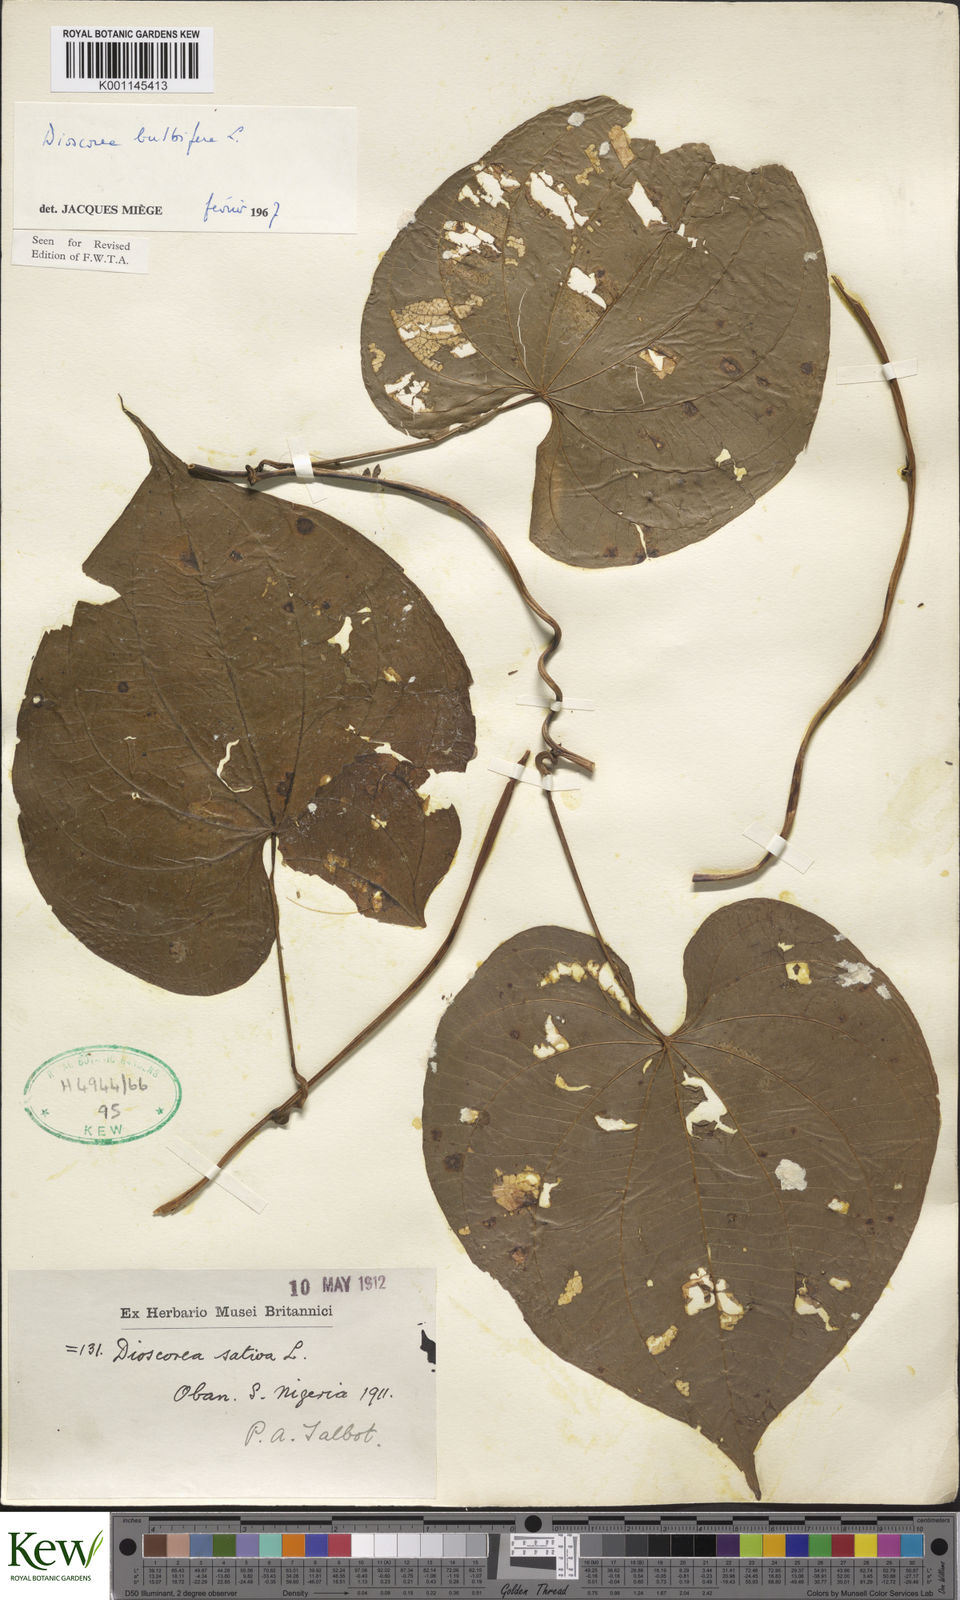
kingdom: Plantae
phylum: Tracheophyta
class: Liliopsida
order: Dioscoreales
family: Dioscoreaceae
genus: Dioscorea
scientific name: Dioscorea bulbifera
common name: Air yam
